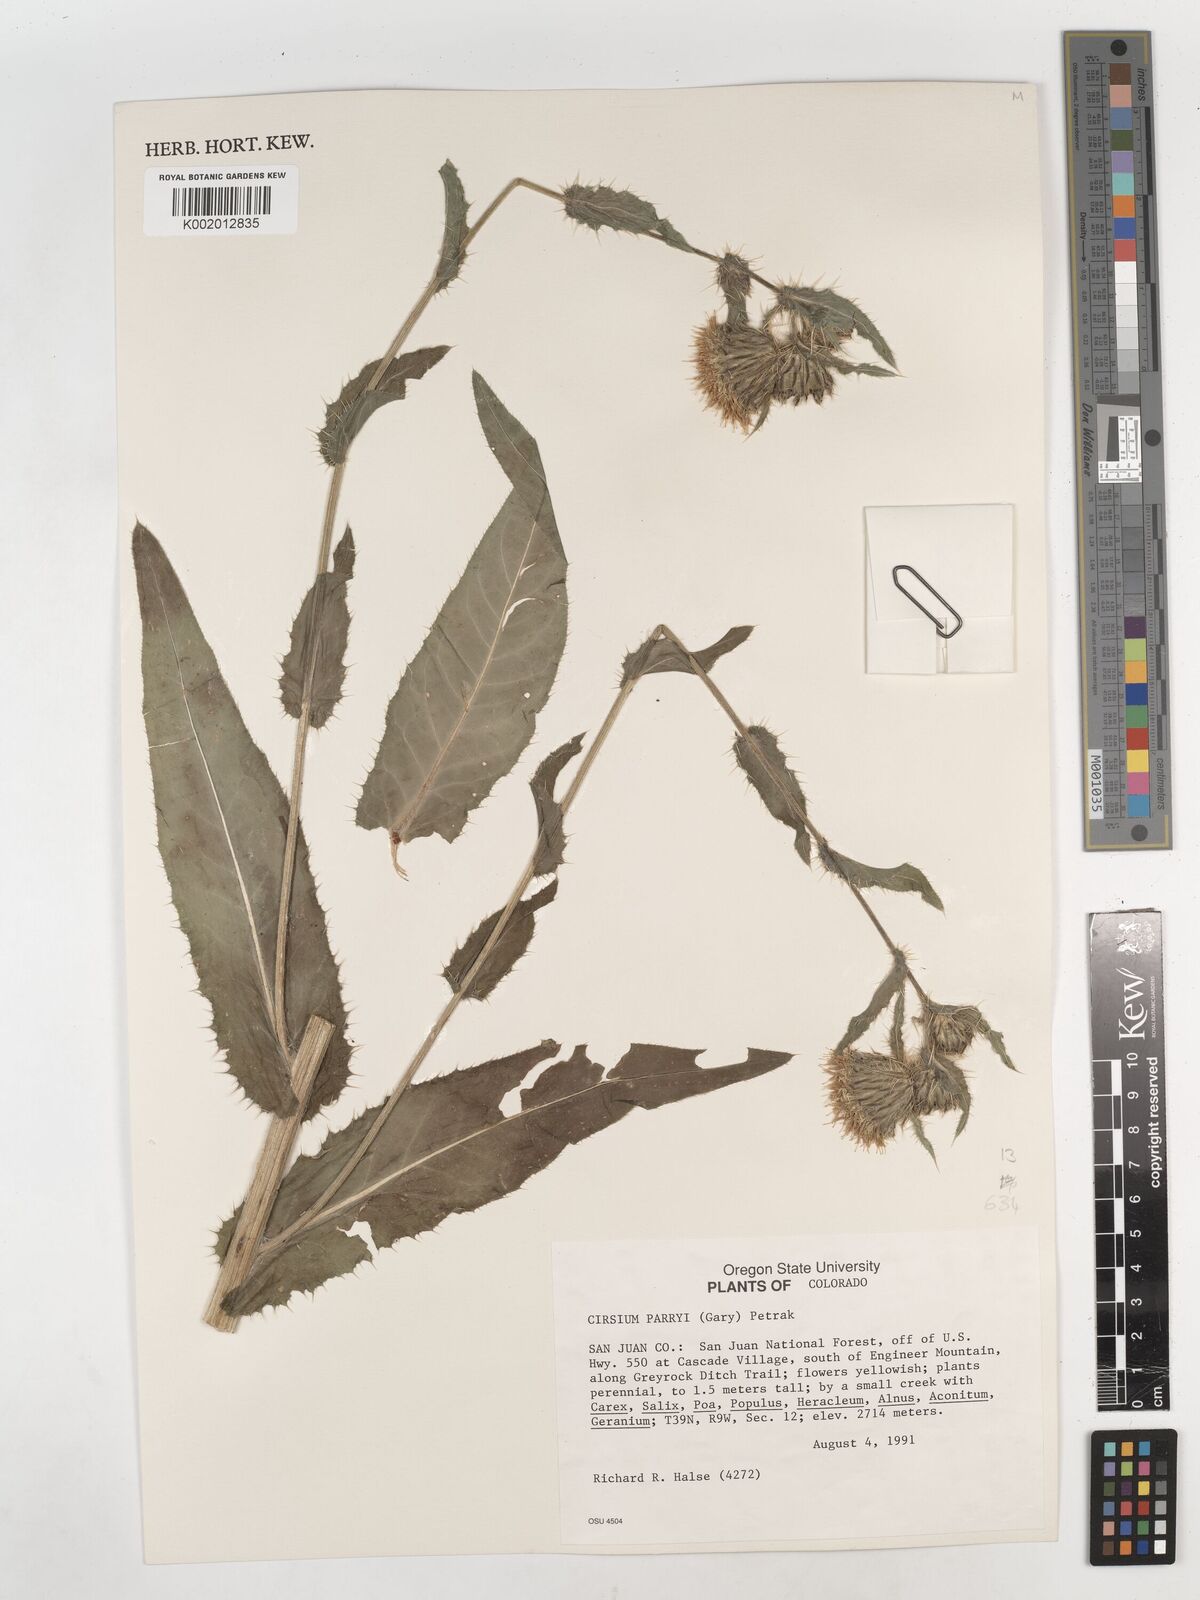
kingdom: Plantae
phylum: Tracheophyta
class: Magnoliopsida
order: Asterales
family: Asteraceae
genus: Cirsium
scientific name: Cirsium parryi
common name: Parry's thistle
